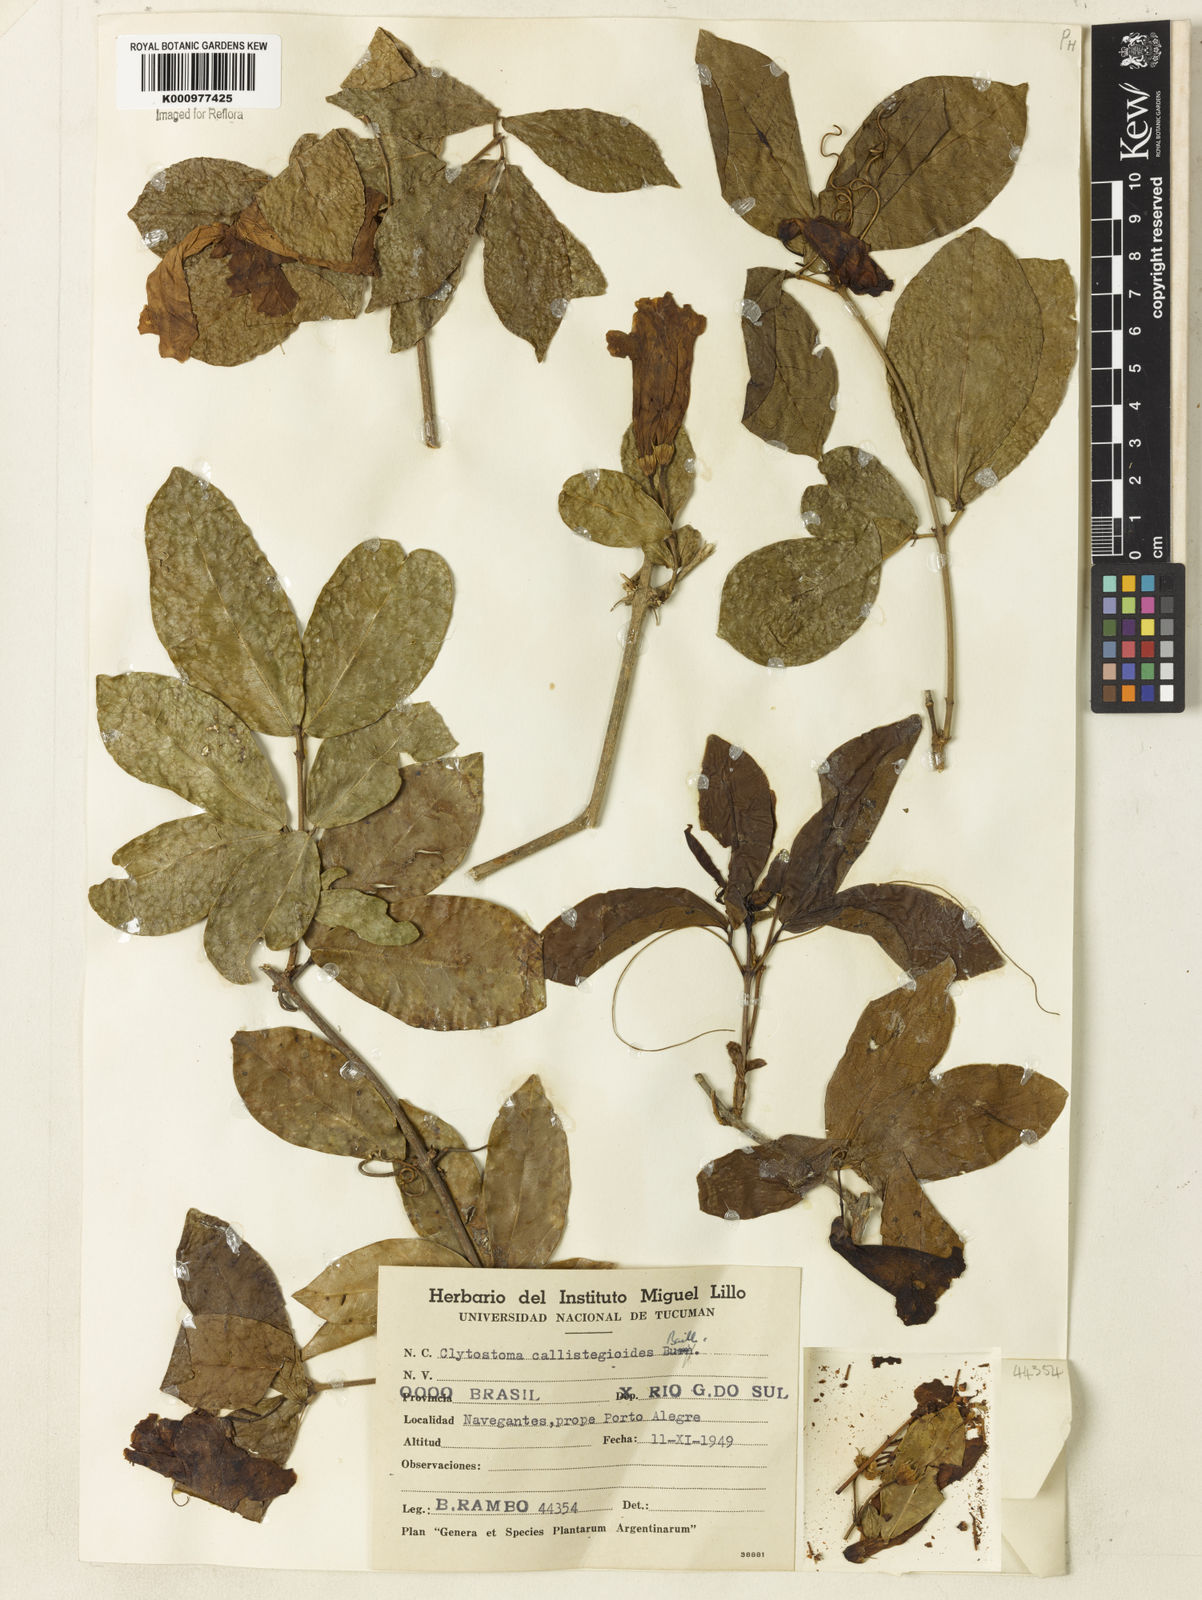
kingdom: Plantae
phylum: Tracheophyta
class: Magnoliopsida
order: Lamiales
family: Bignoniaceae
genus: Bignonia
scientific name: Bignonia
